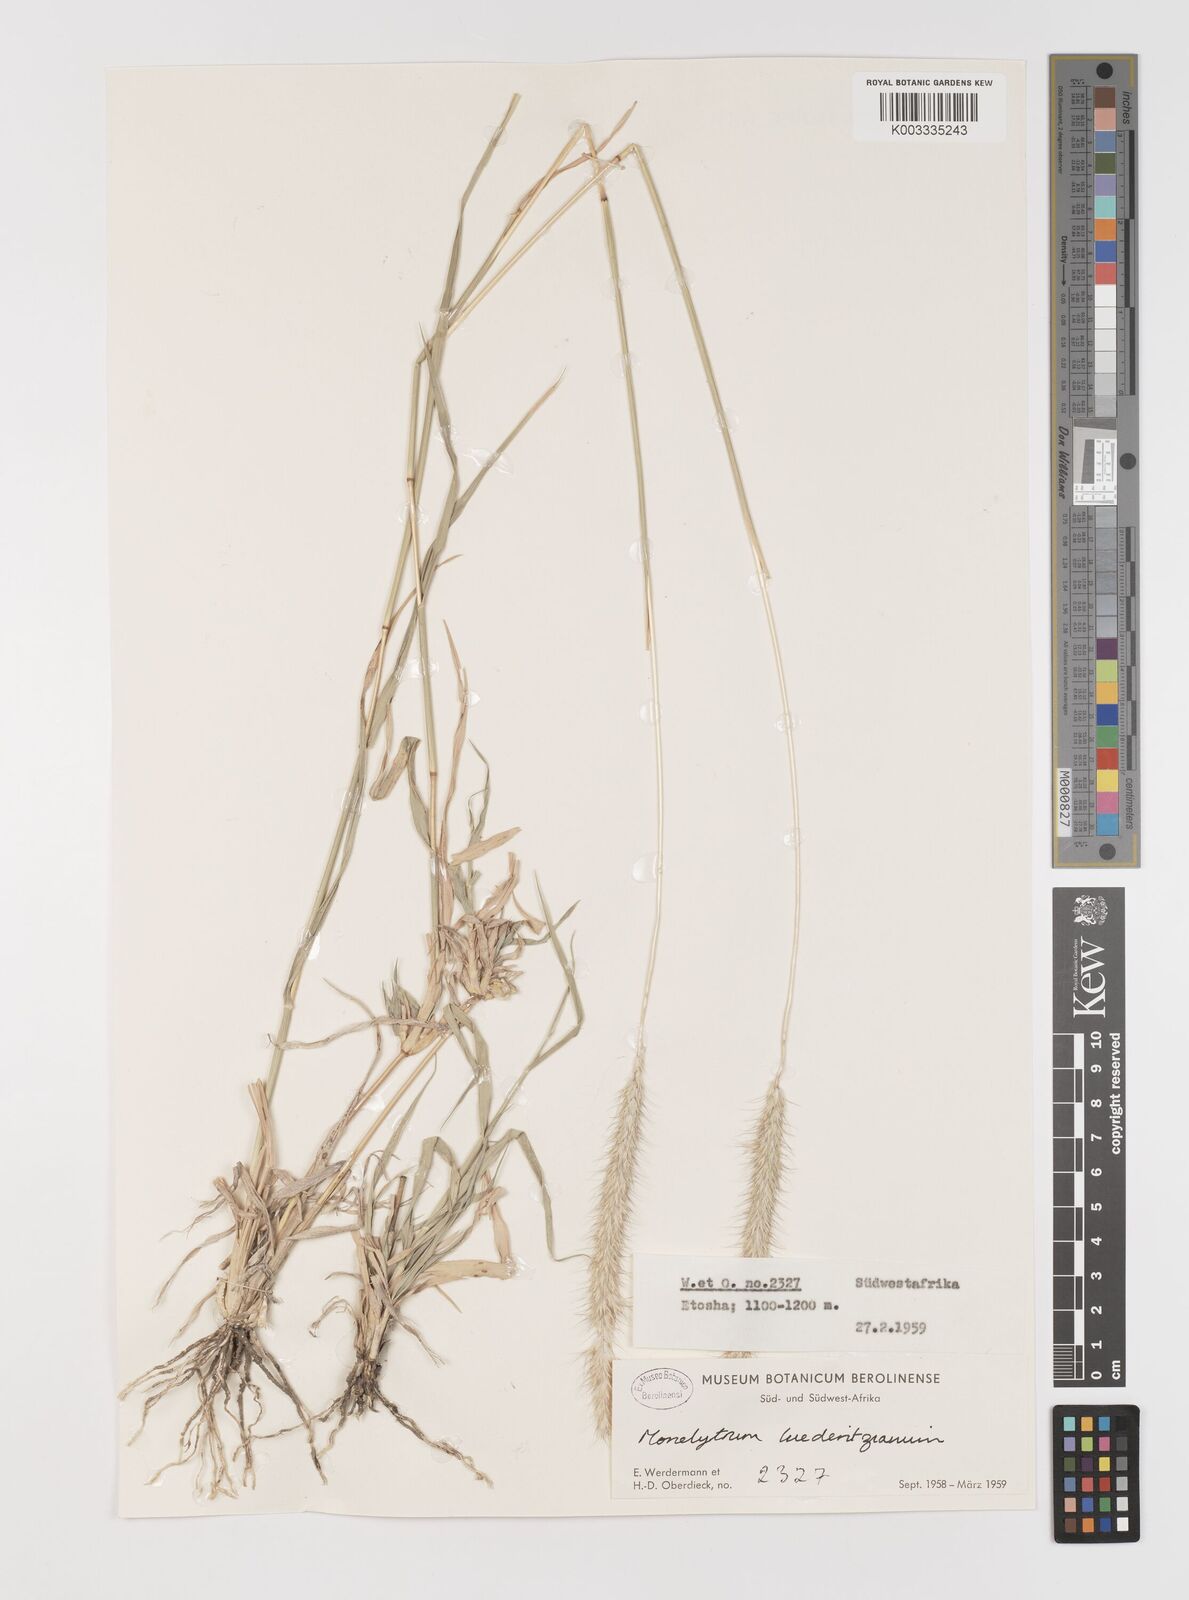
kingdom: Plantae
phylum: Tracheophyta
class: Liliopsida
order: Poales
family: Poaceae
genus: Monelytrum
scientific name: Monelytrum luederitzianum
